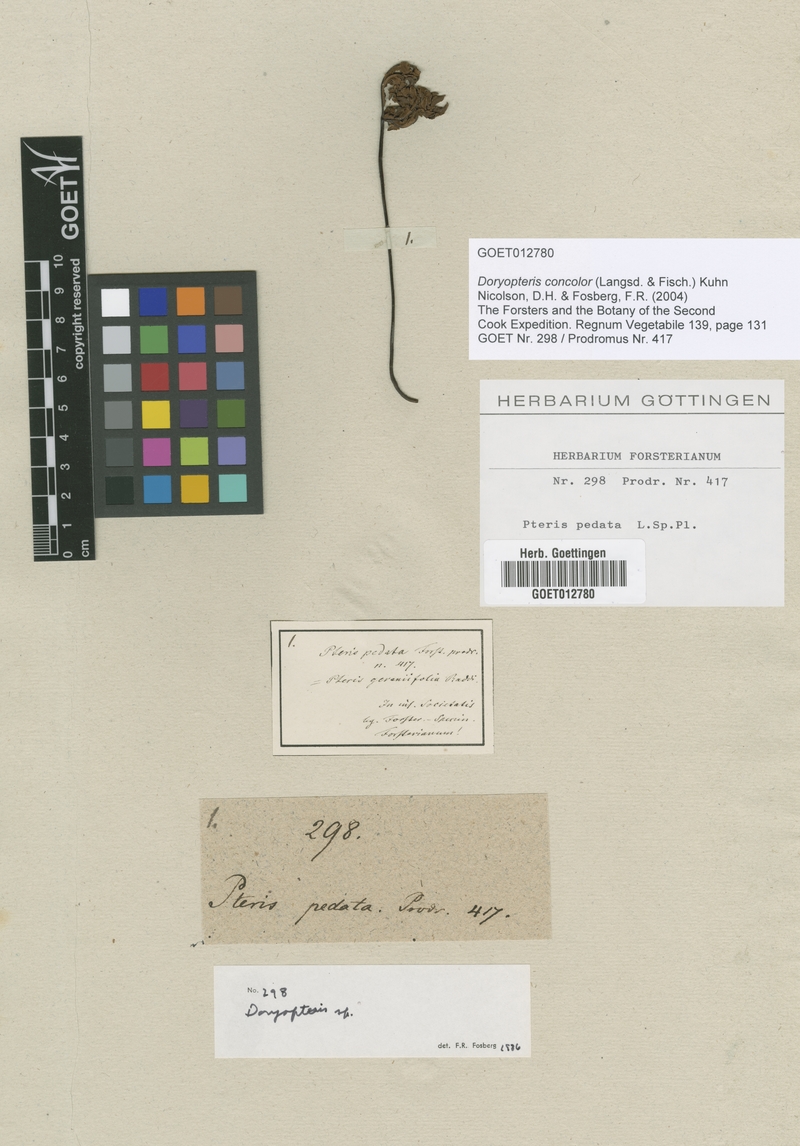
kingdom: Plantae
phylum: Tracheophyta
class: Polypodiopsida
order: Polypodiales
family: Pteridaceae
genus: Doryopteris
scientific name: Doryopteris concolor
